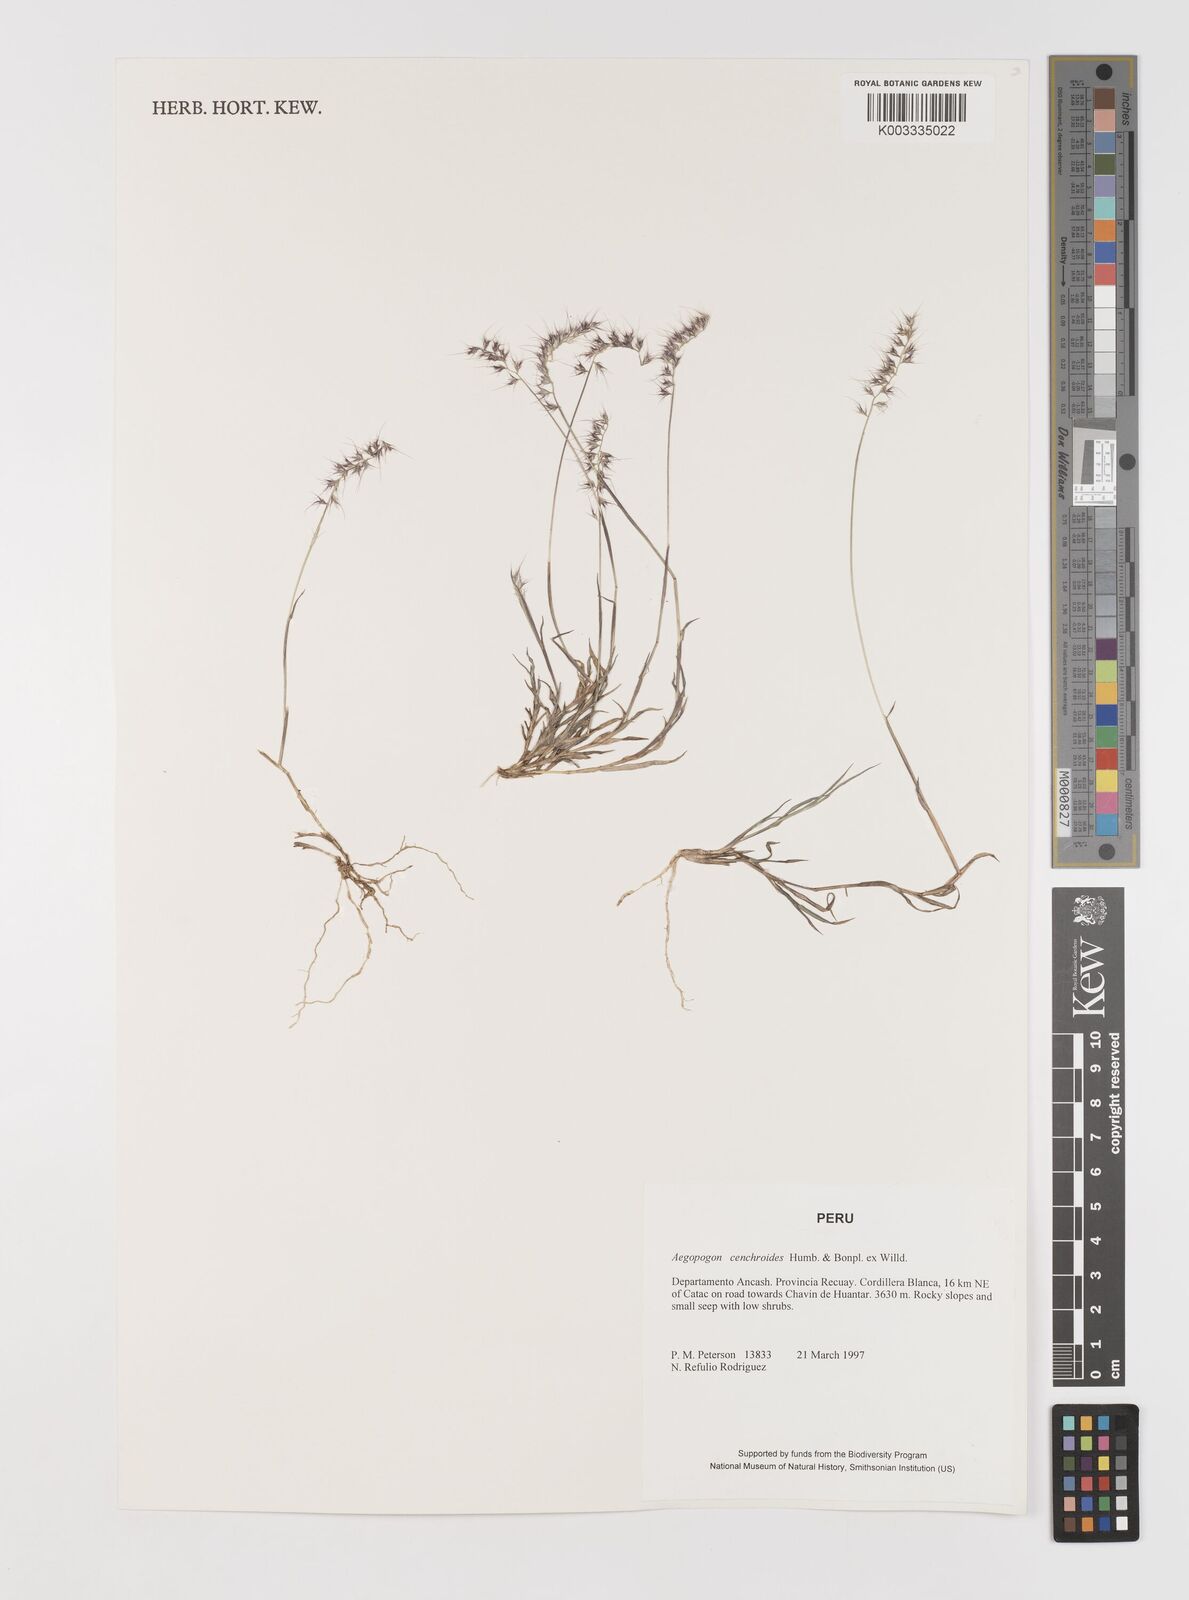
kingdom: Plantae
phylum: Tracheophyta
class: Liliopsida
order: Poales
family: Poaceae
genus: Muhlenbergia
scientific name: Muhlenbergia cenchroides
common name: Relaxgrass
